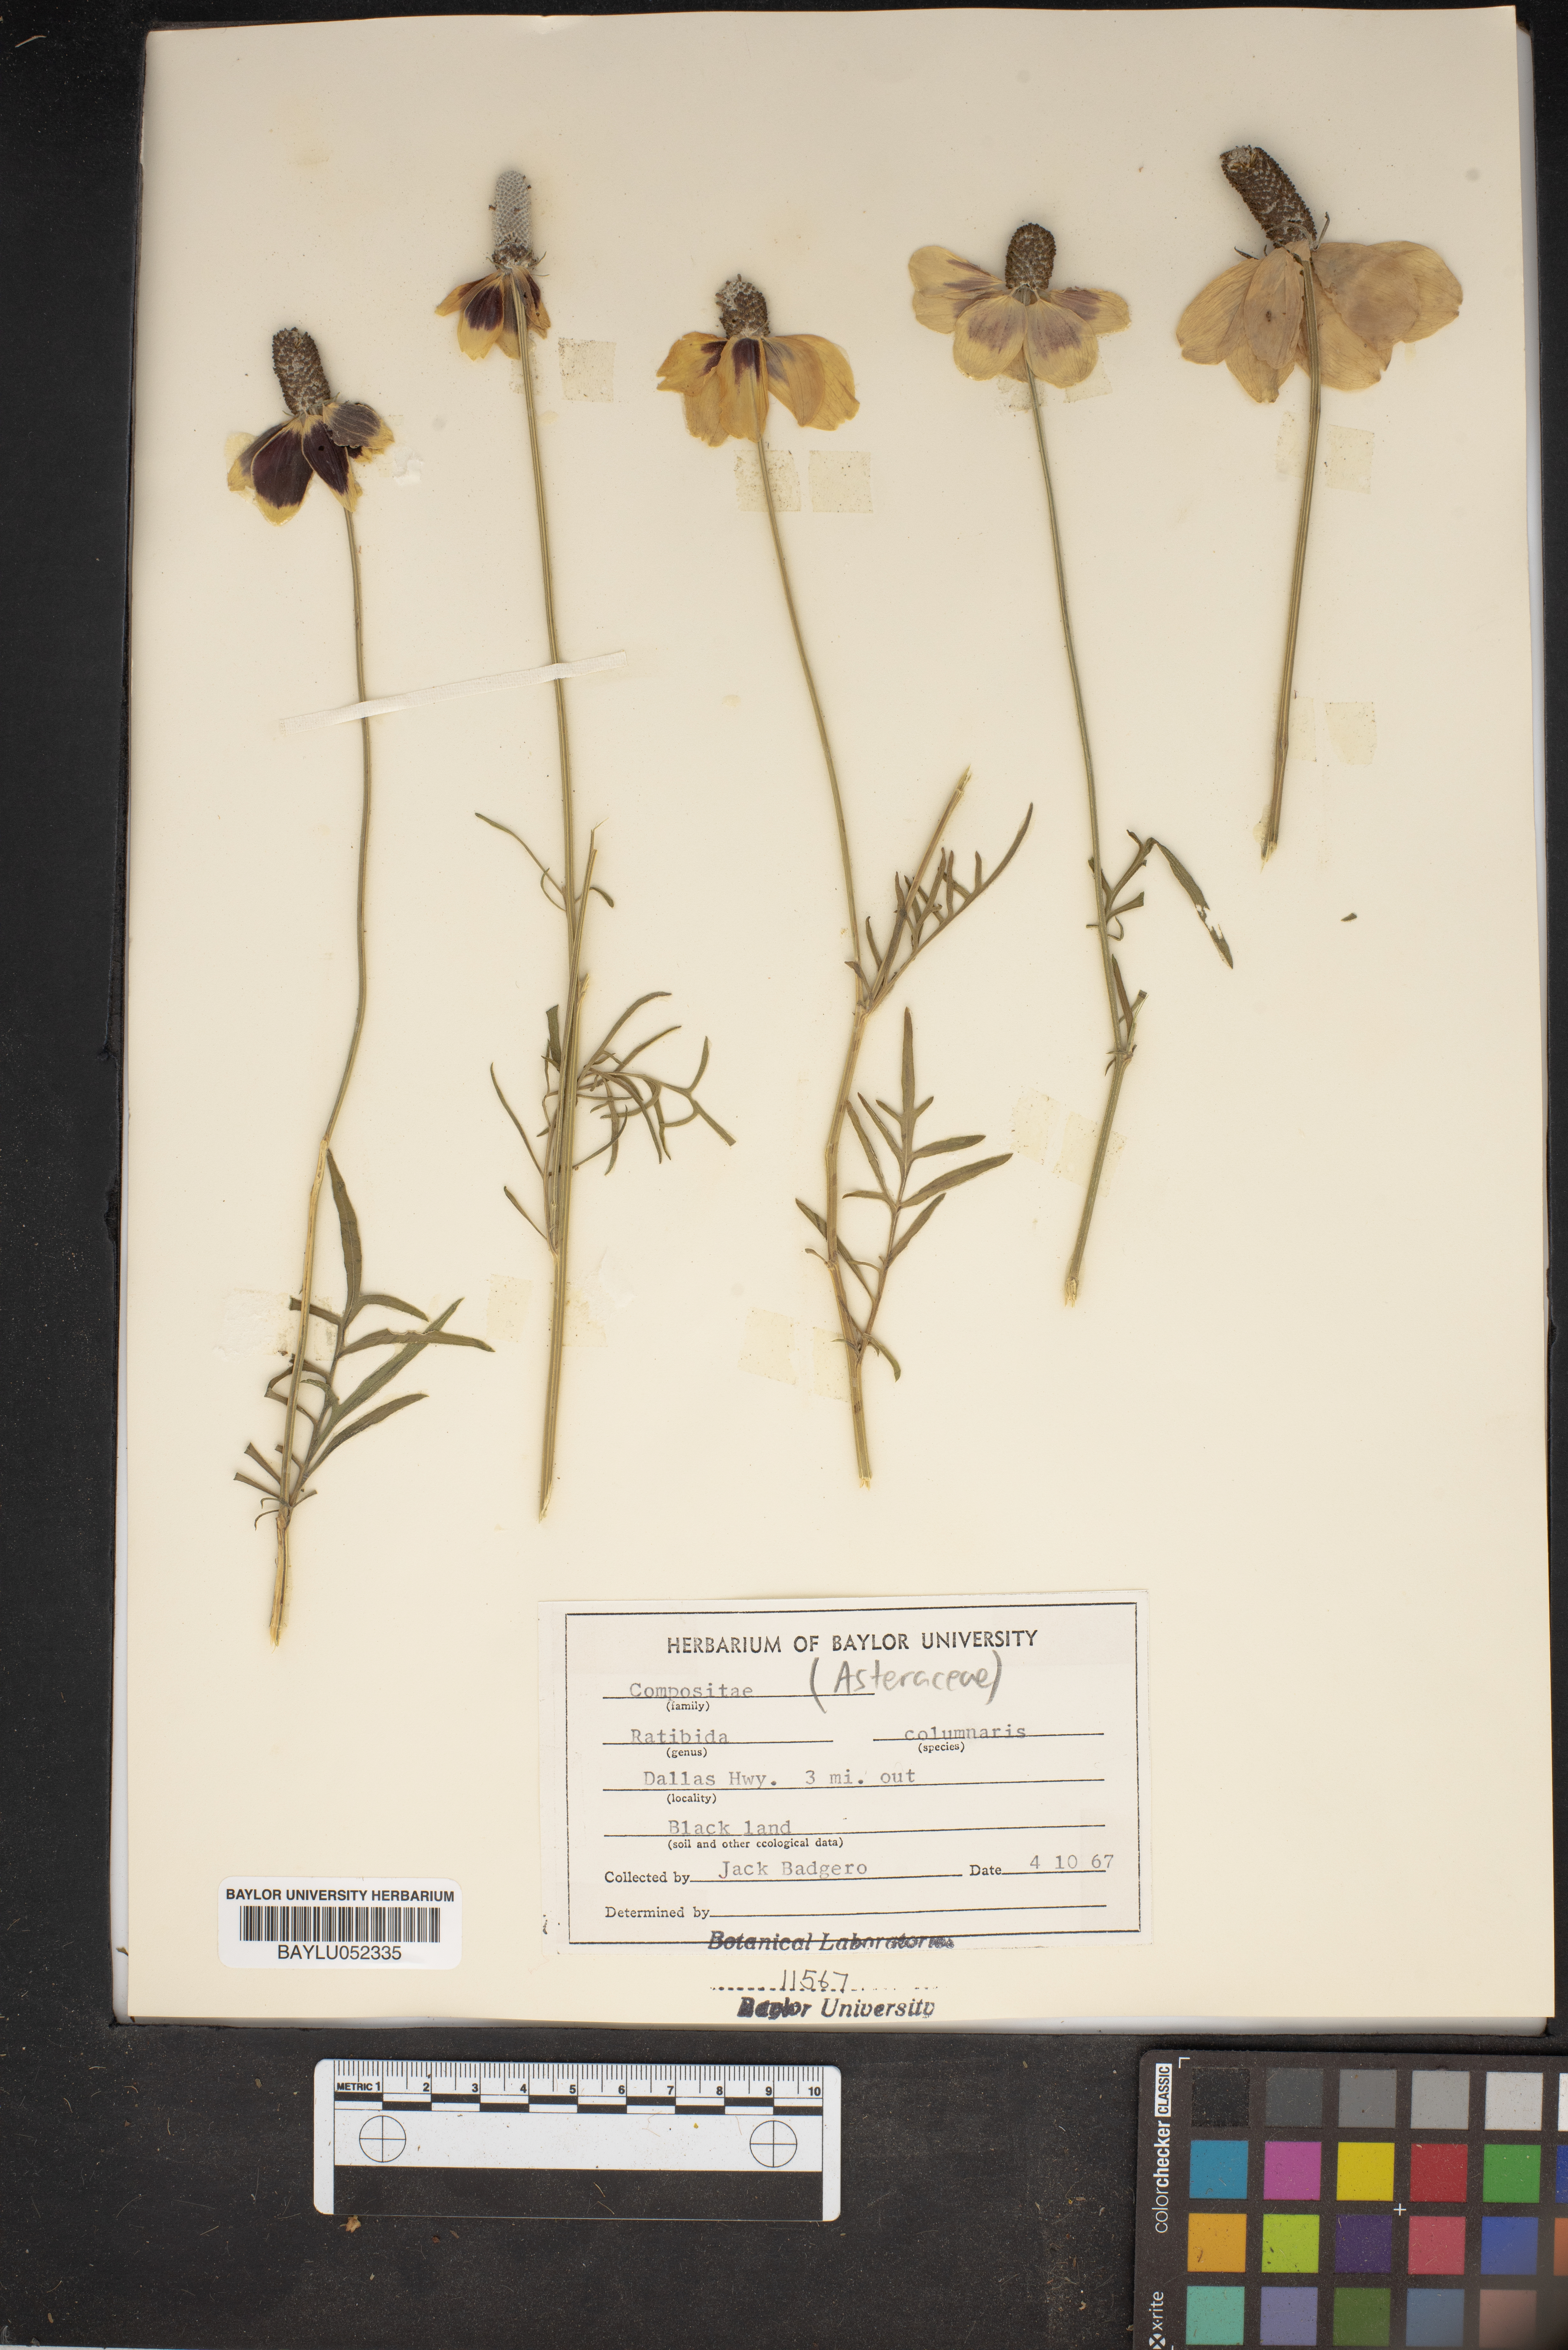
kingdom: Plantae
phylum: Tracheophyta
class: Magnoliopsida
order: Asterales
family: Asteraceae
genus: Ratibida
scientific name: Ratibida columnifera
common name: Prairie coneflower
